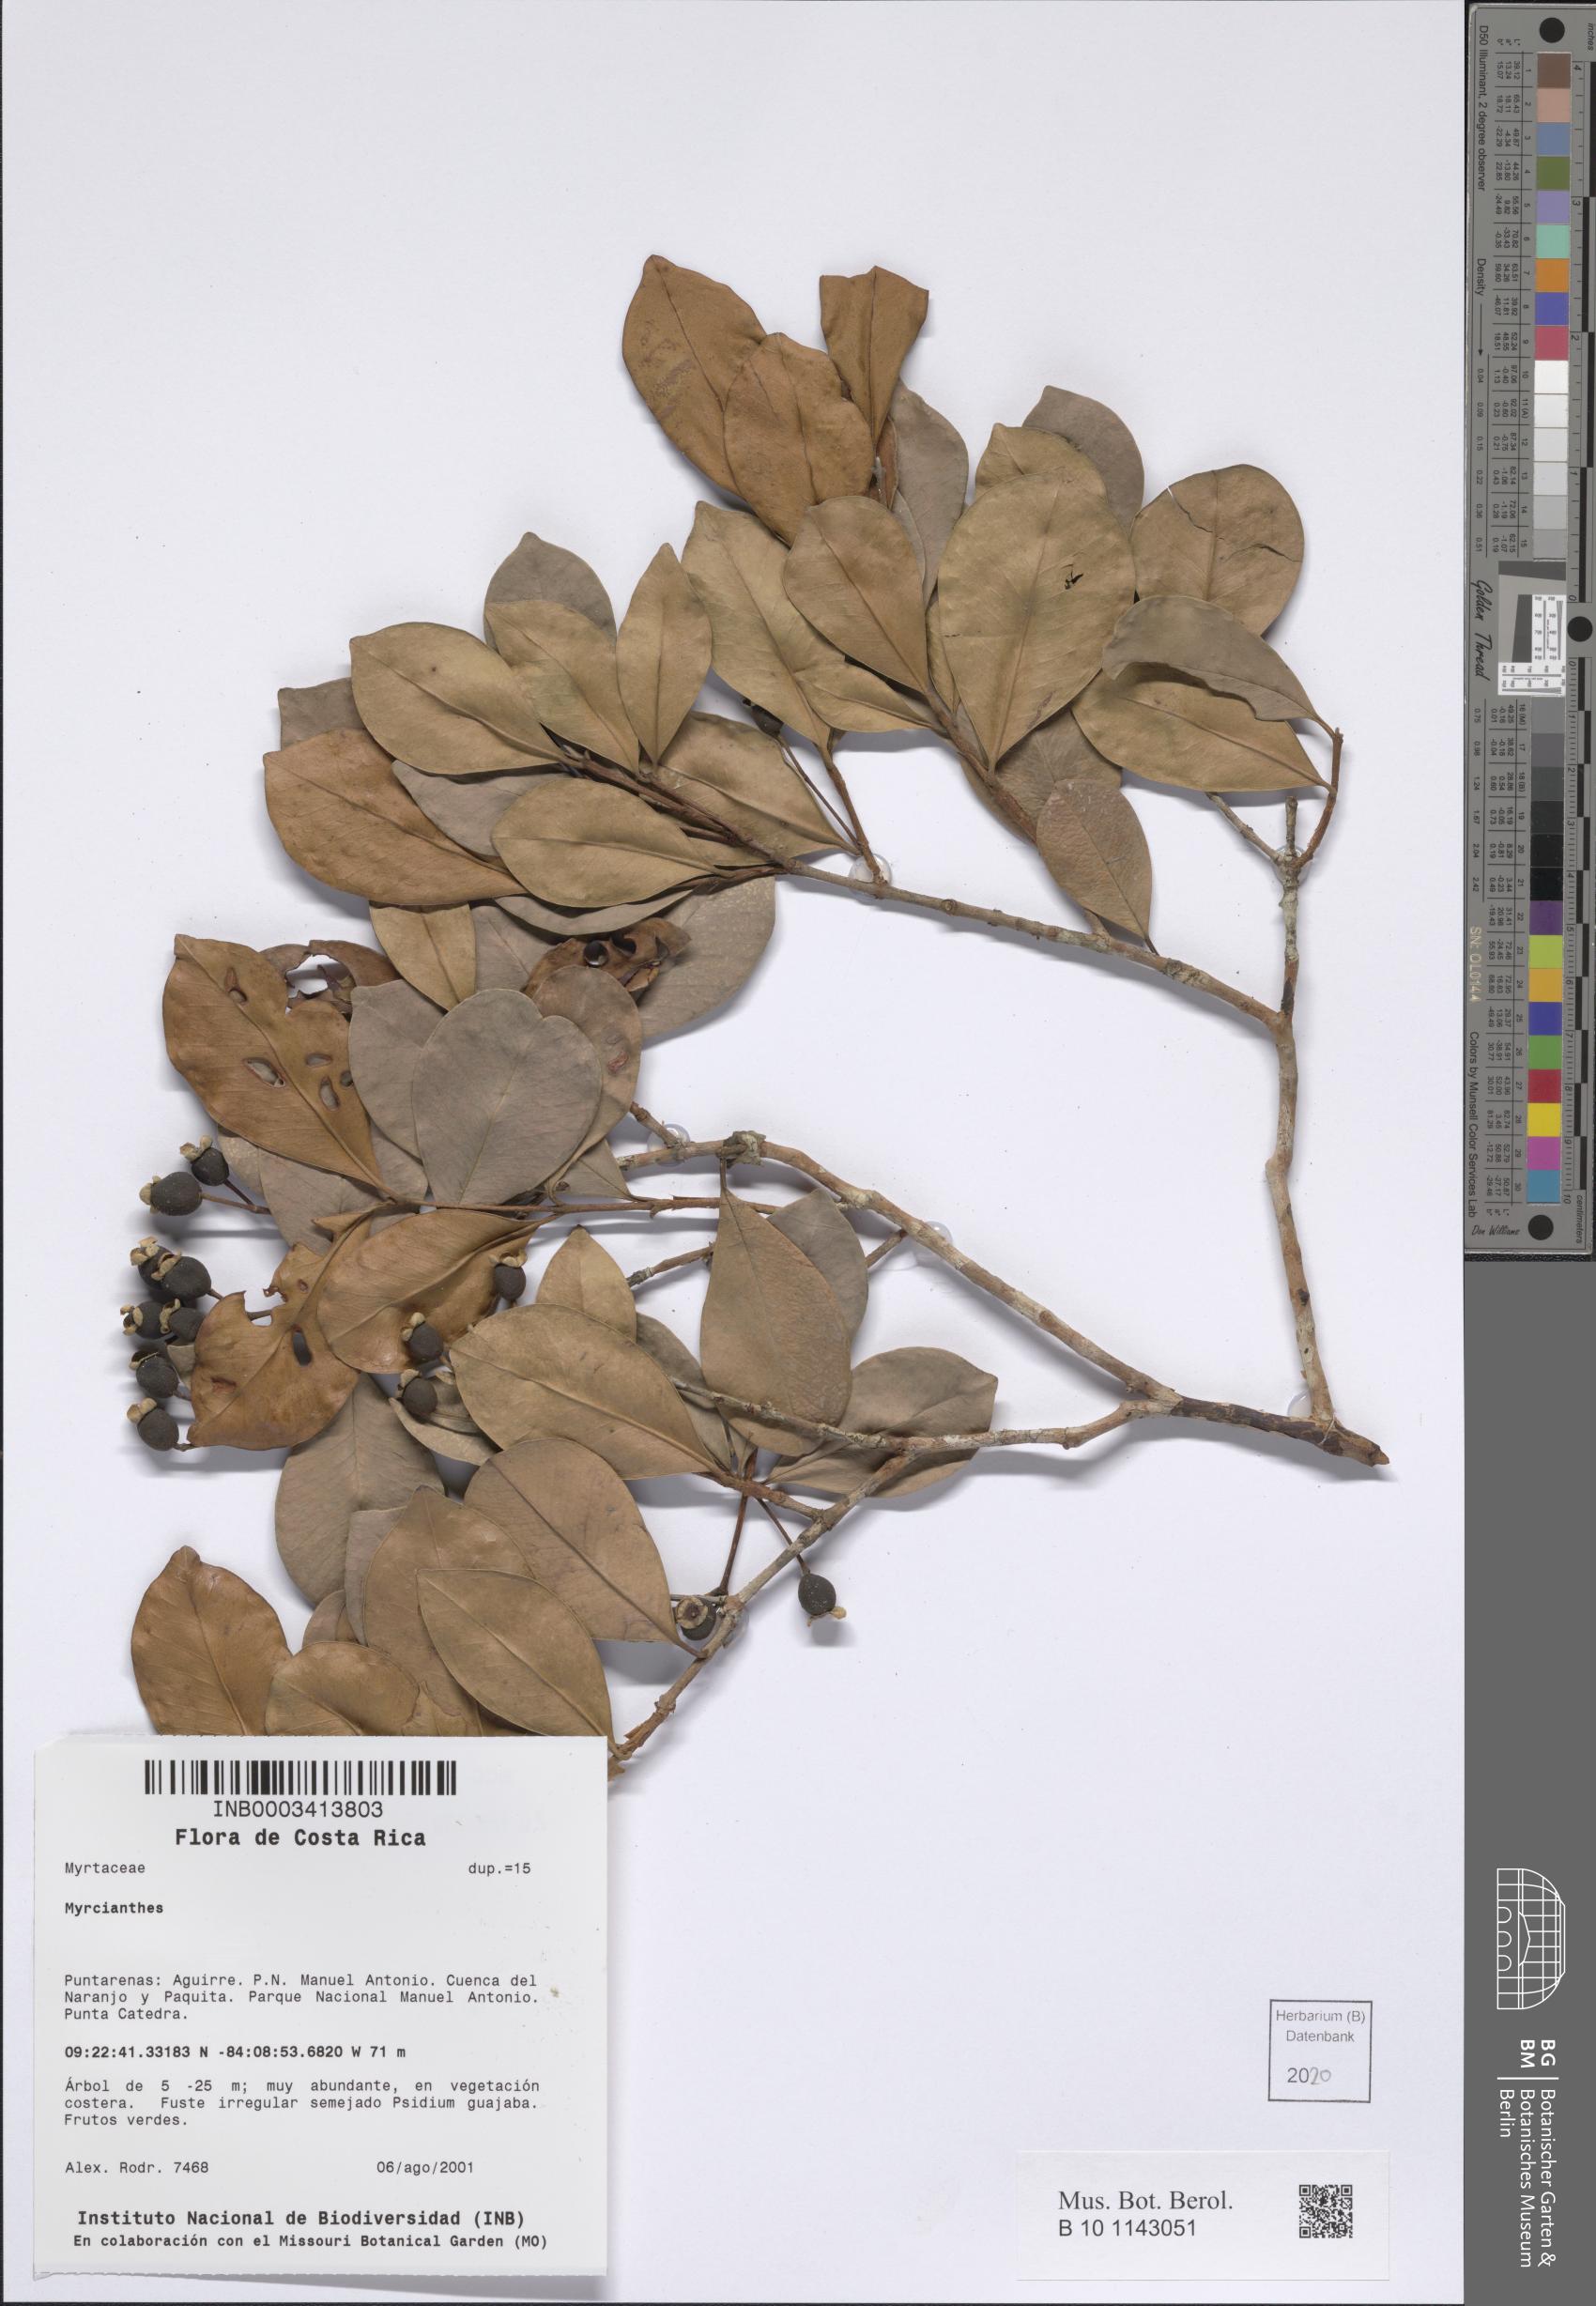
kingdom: Plantae
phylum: Tracheophyta
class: Magnoliopsida
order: Myrtales
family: Myrtaceae
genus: Myrcianthes
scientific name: Myrcianthes
